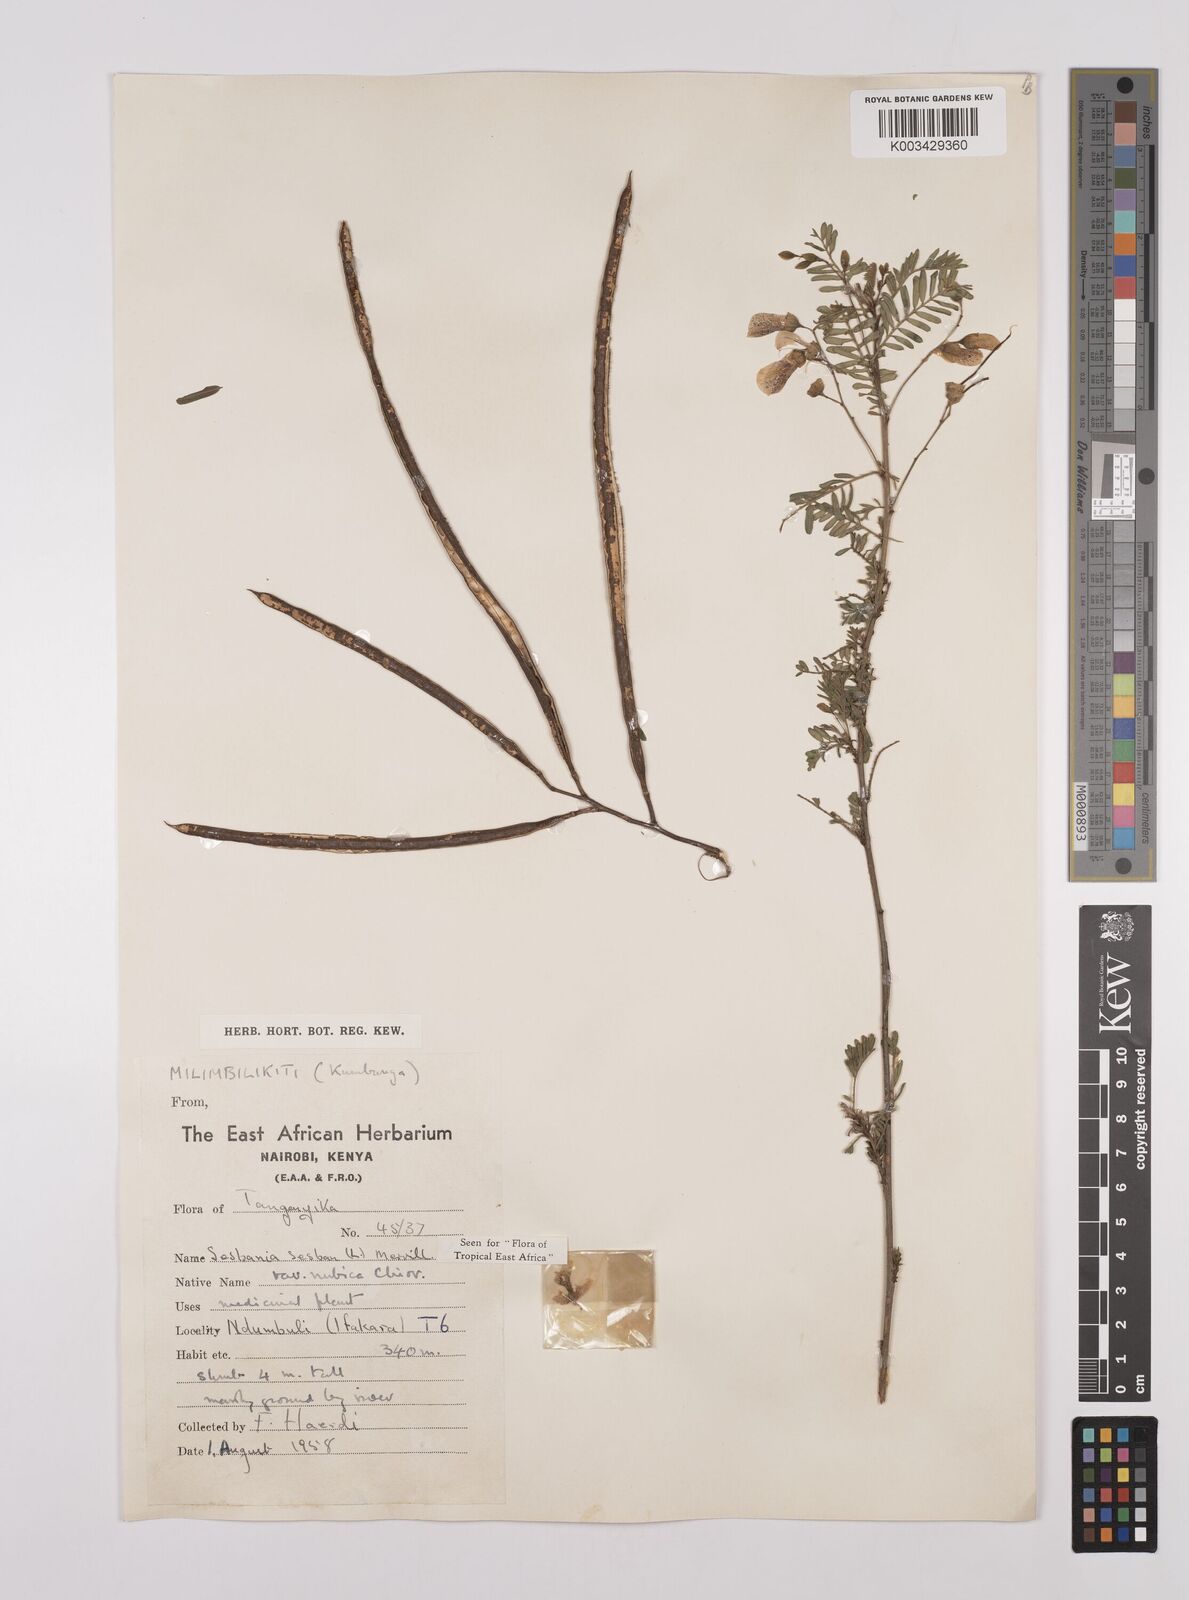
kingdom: Plantae
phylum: Tracheophyta
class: Magnoliopsida
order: Fabales
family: Fabaceae
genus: Sesbania
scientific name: Sesbania sesban
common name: Egyptian sesban
